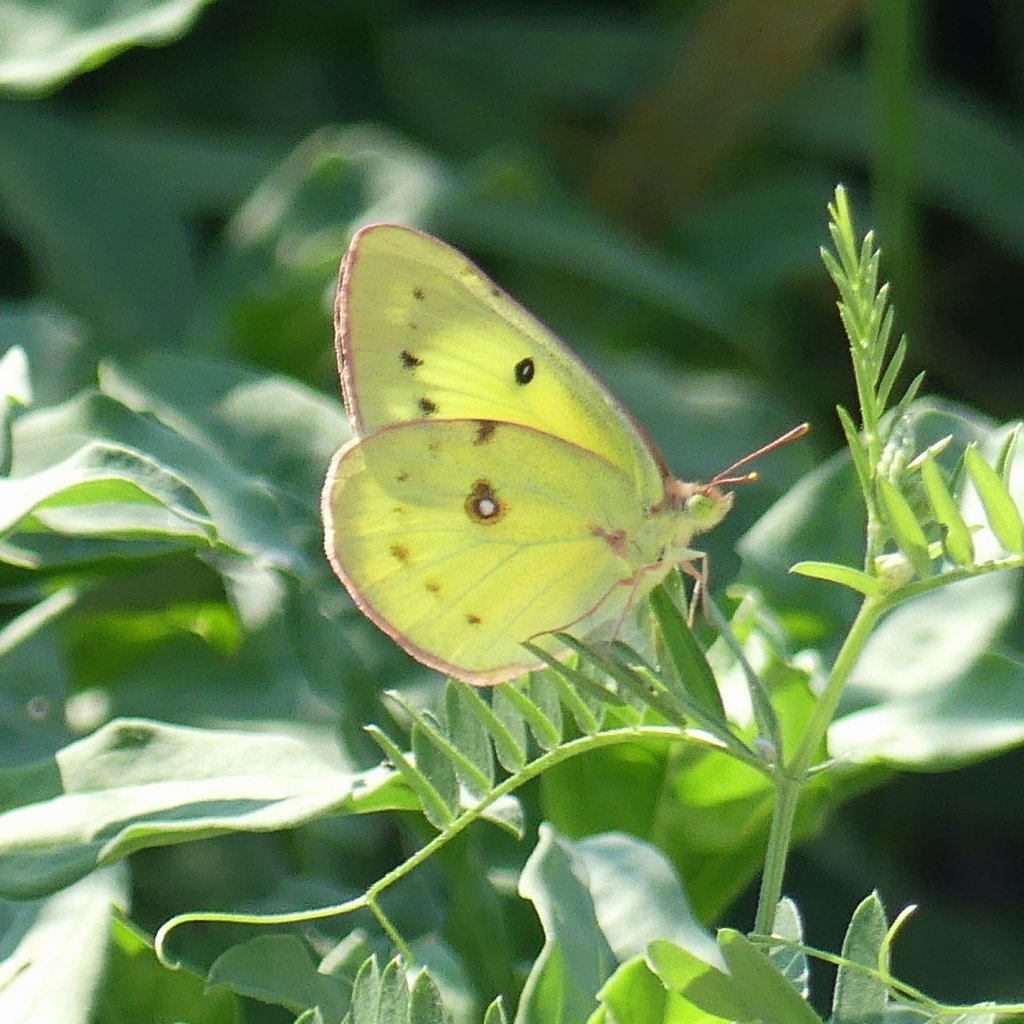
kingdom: Animalia
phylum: Arthropoda
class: Insecta
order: Lepidoptera
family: Pieridae
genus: Colias
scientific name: Colias philodice
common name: Clouded Sulphur
